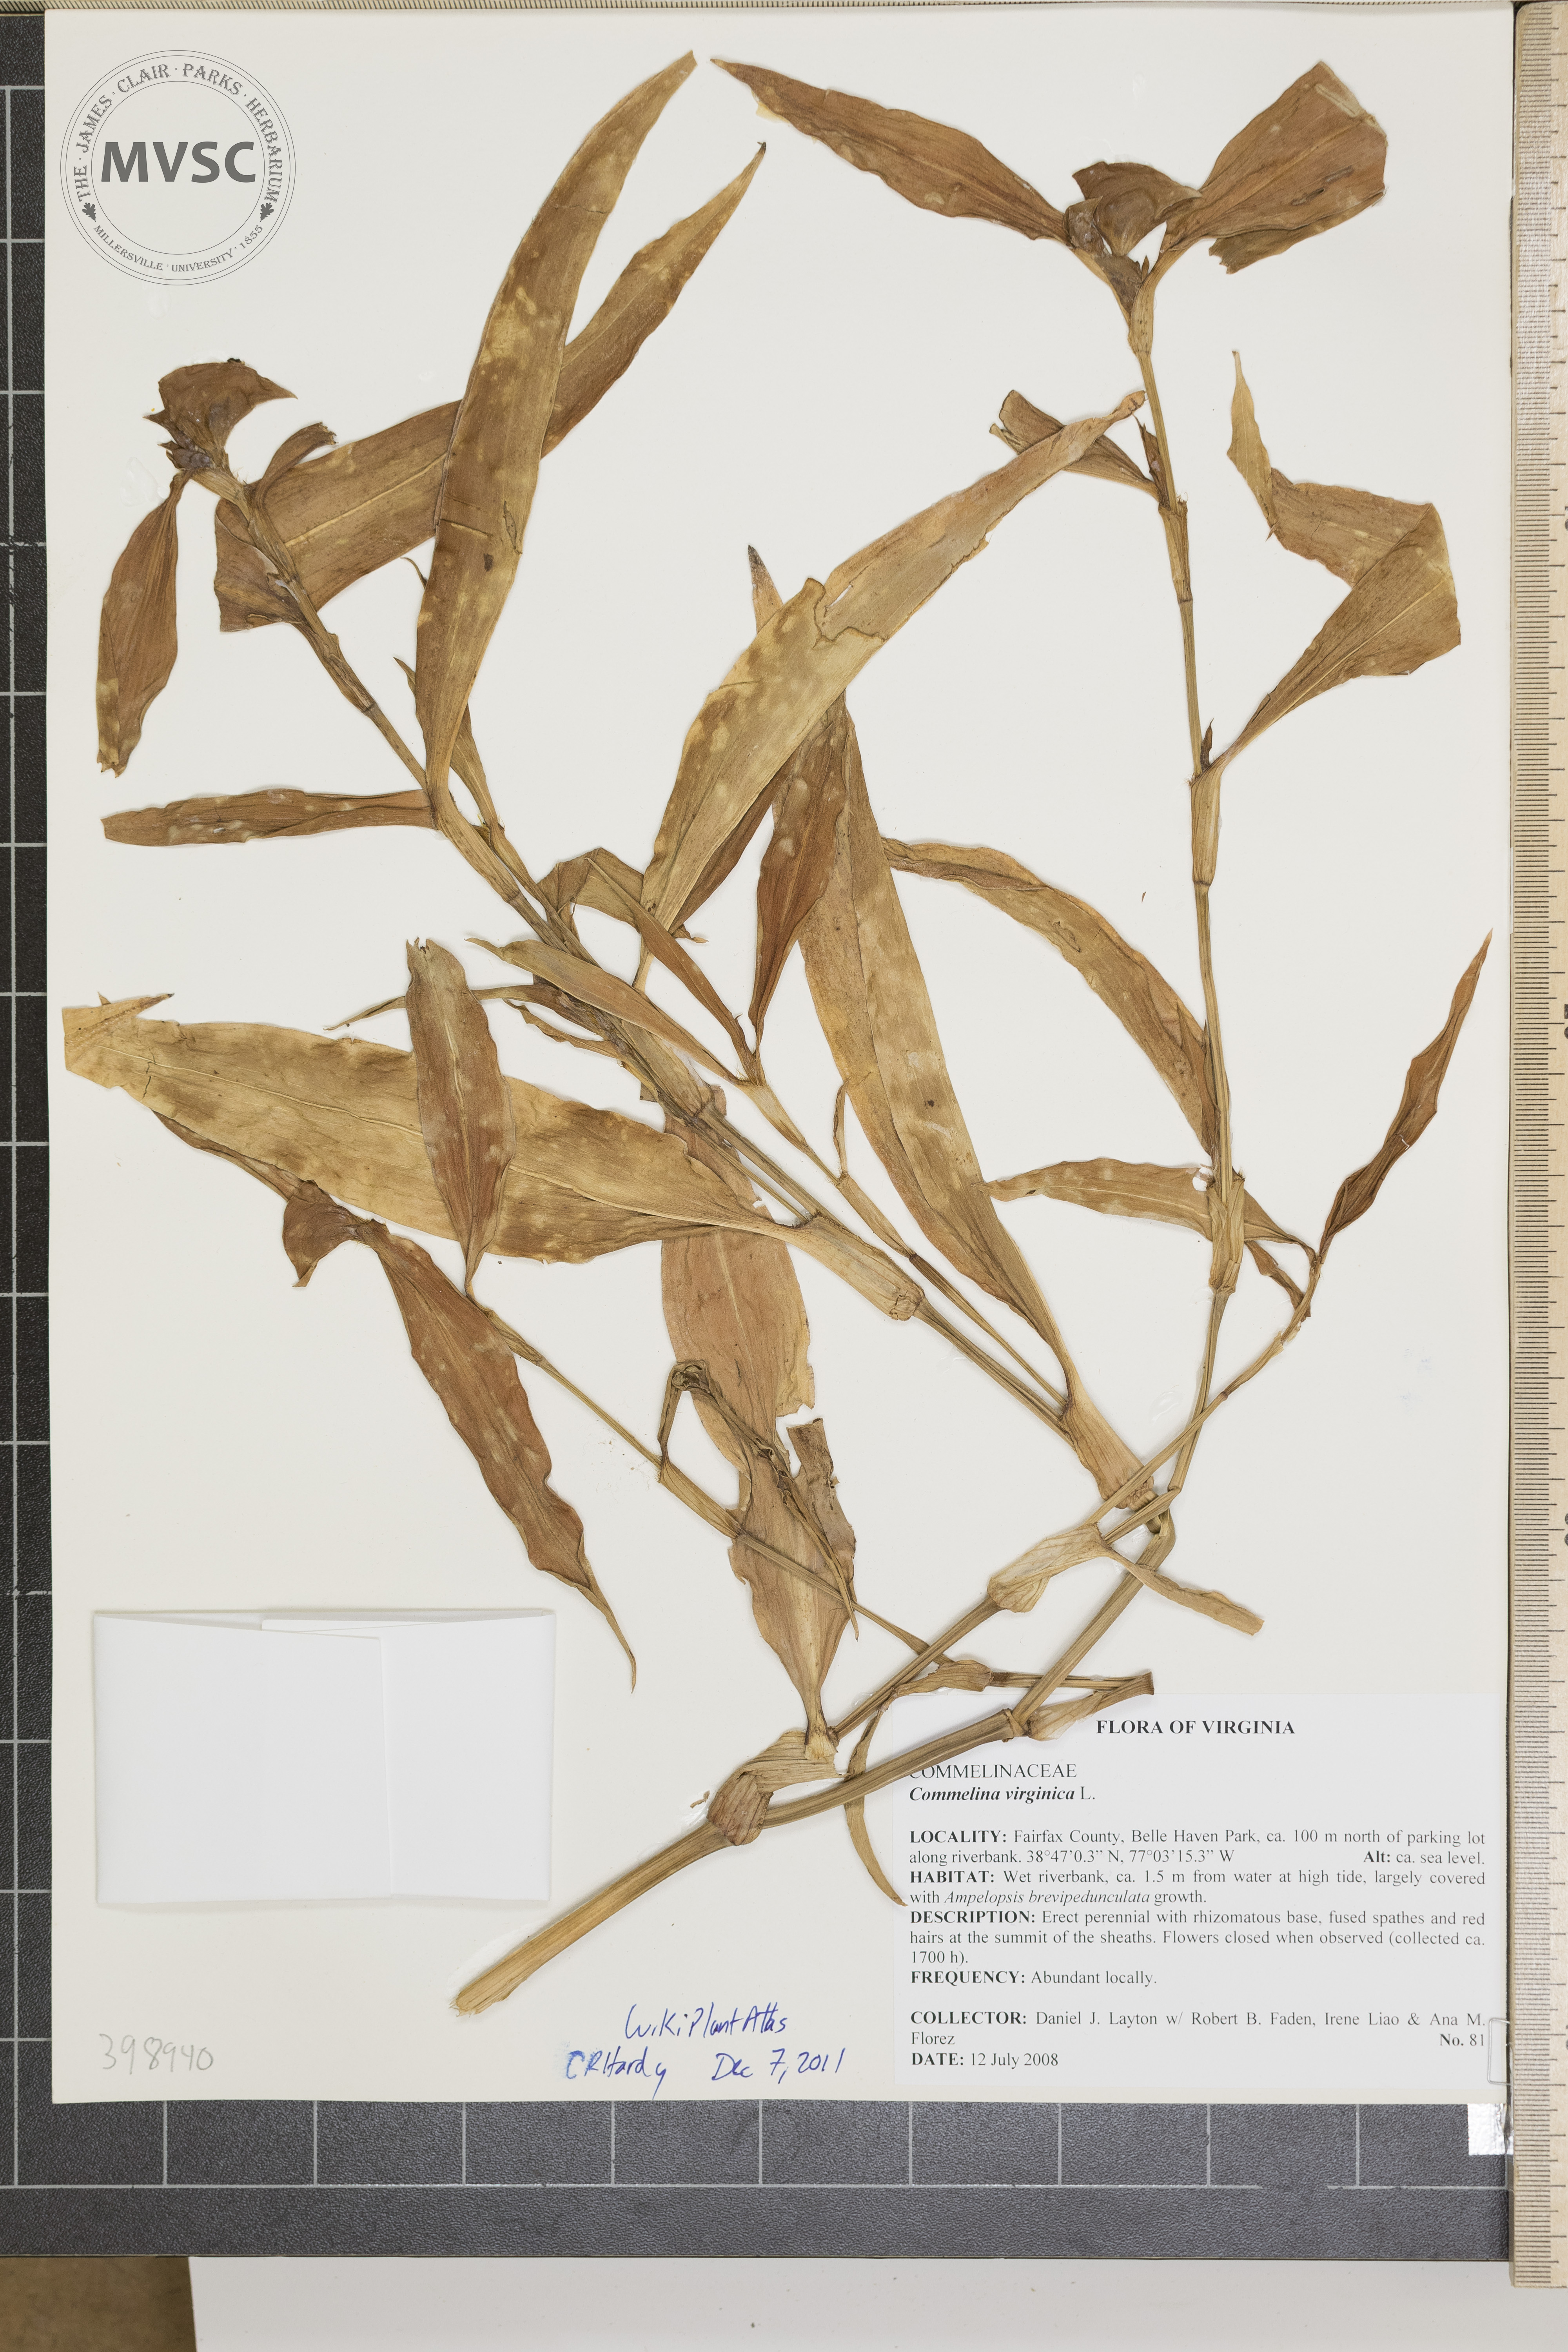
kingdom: Plantae
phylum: Tracheophyta
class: Liliopsida
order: Commelinales
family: Commelinaceae
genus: Commelina
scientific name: Commelina virginica
